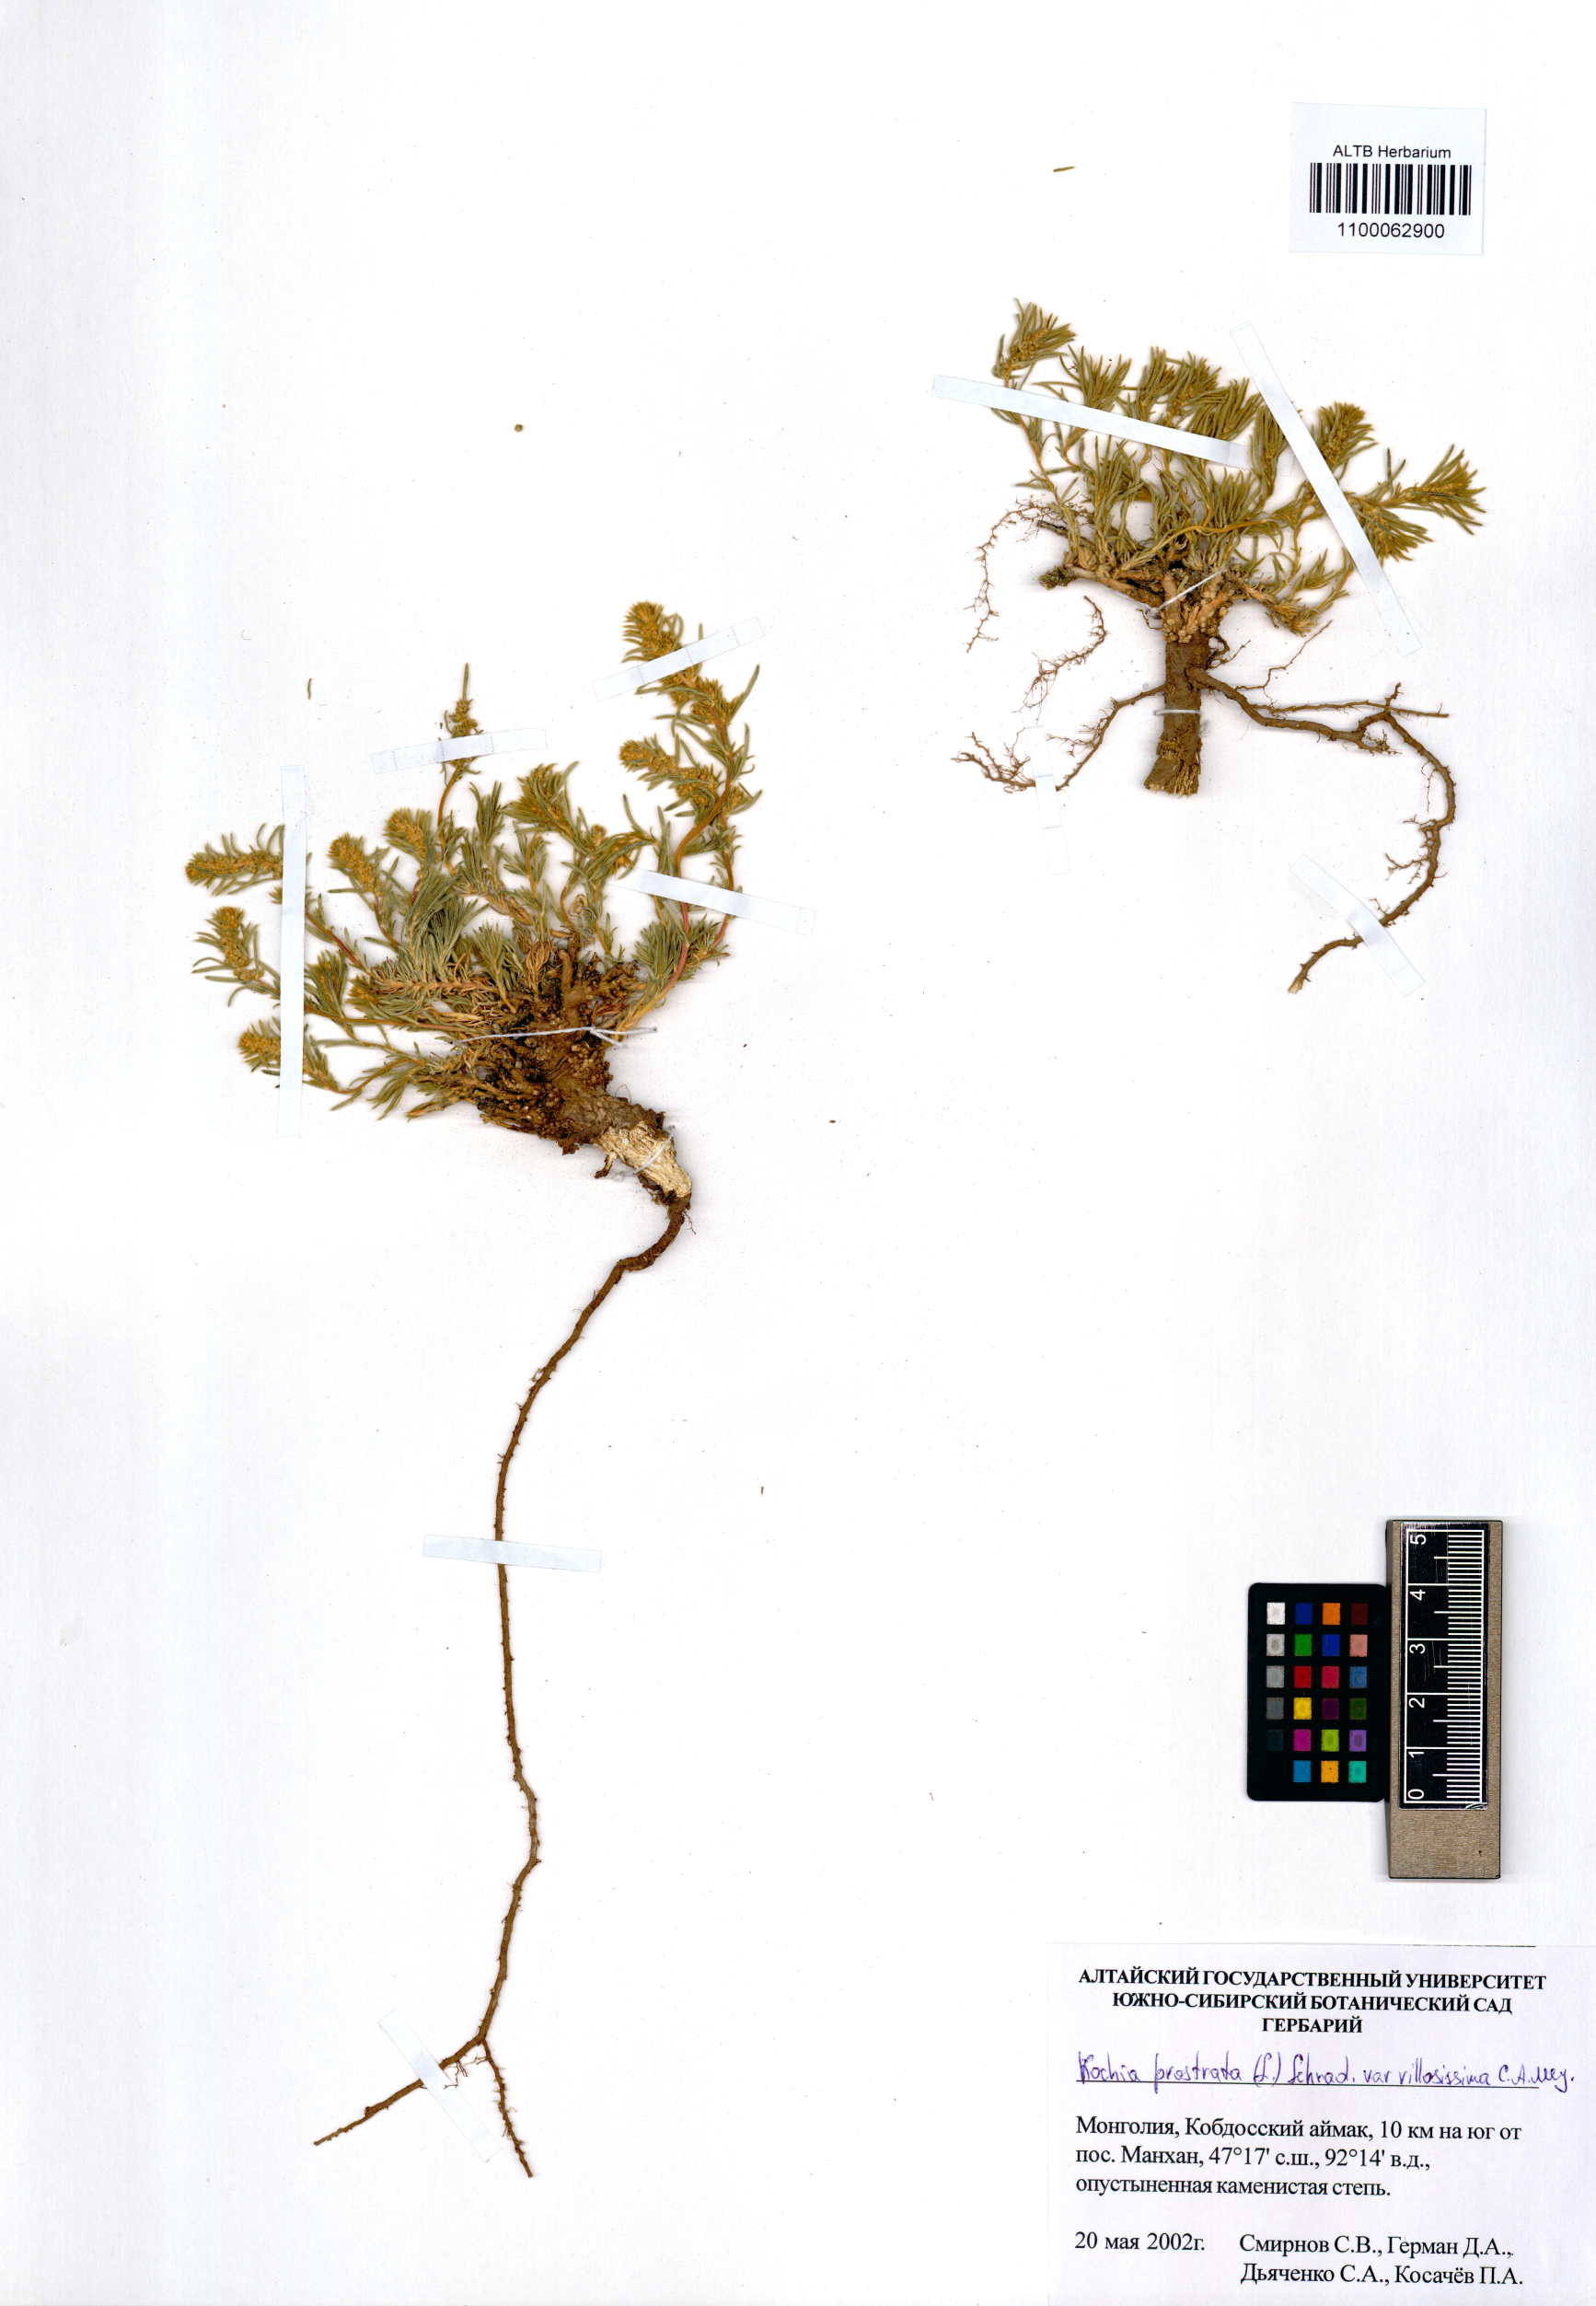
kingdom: Plantae
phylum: Tracheophyta
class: Magnoliopsida
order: Caryophyllales
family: Amaranthaceae
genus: Bassia
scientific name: Bassia villosissima
